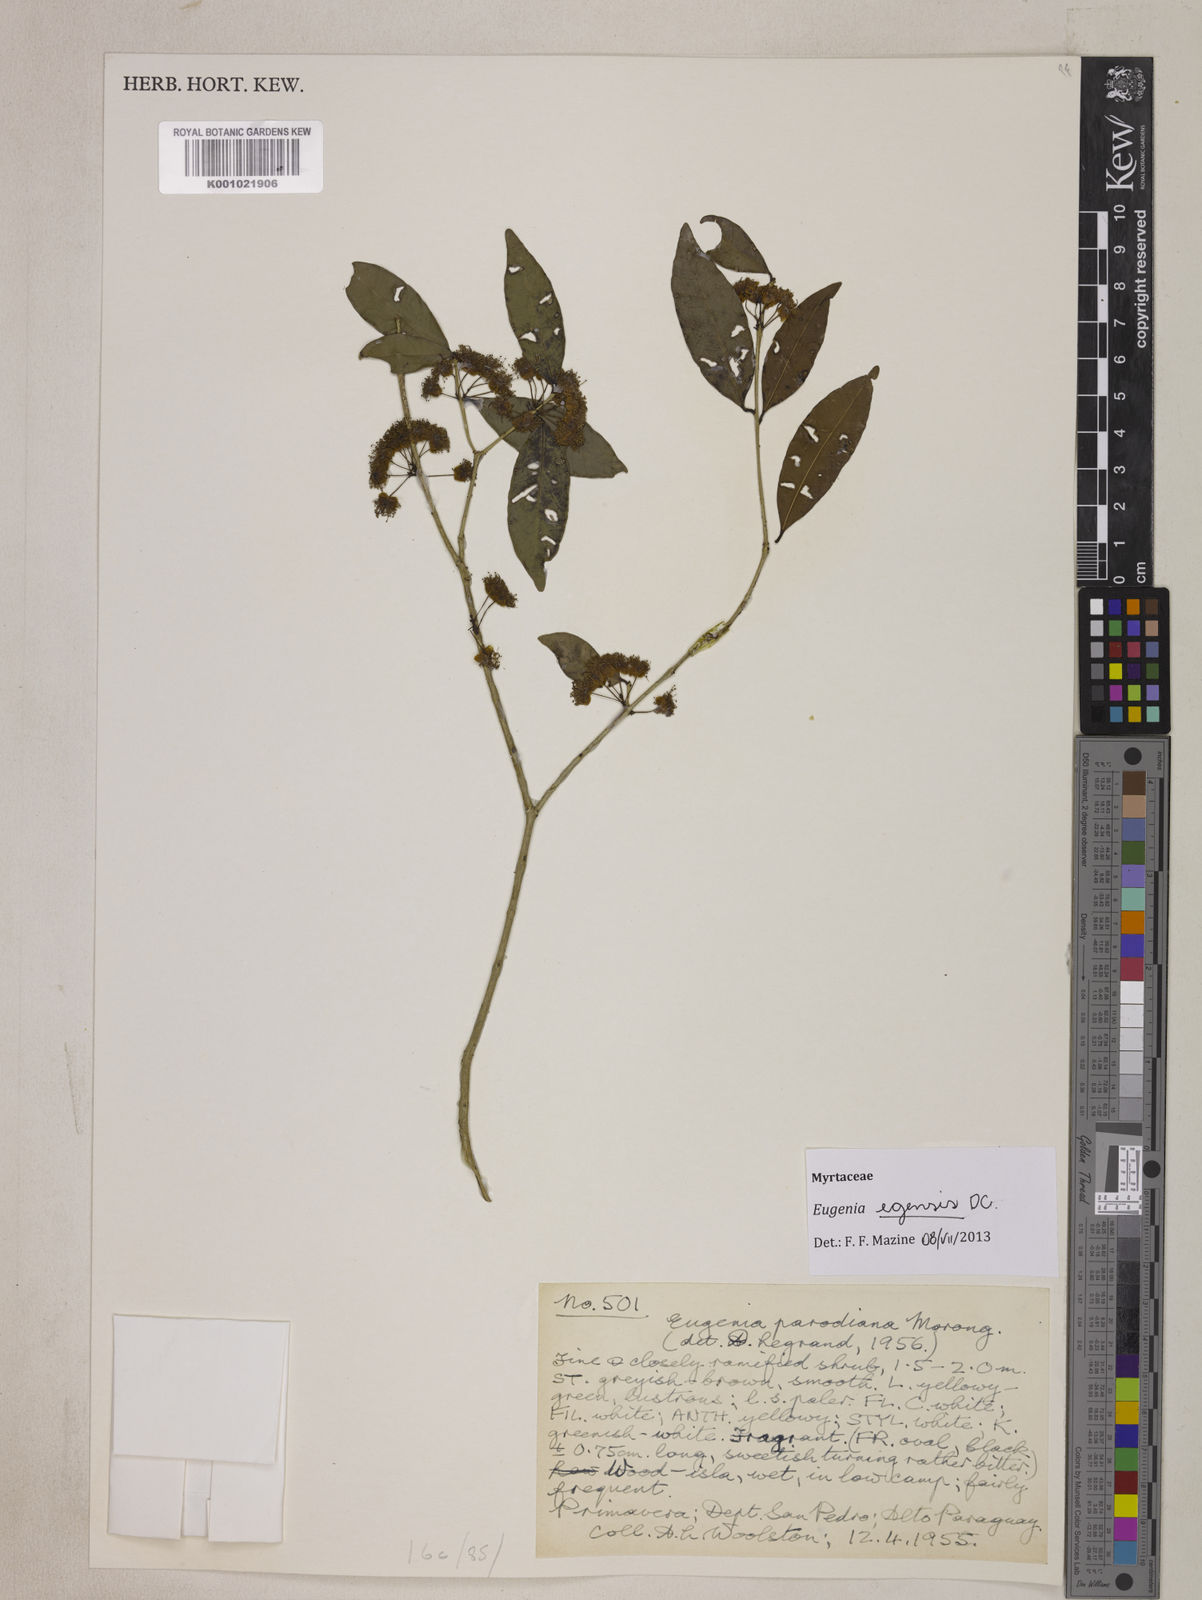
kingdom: Plantae
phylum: Tracheophyta
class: Magnoliopsida
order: Myrtales
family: Myrtaceae
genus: Eugenia
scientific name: Eugenia egensis
